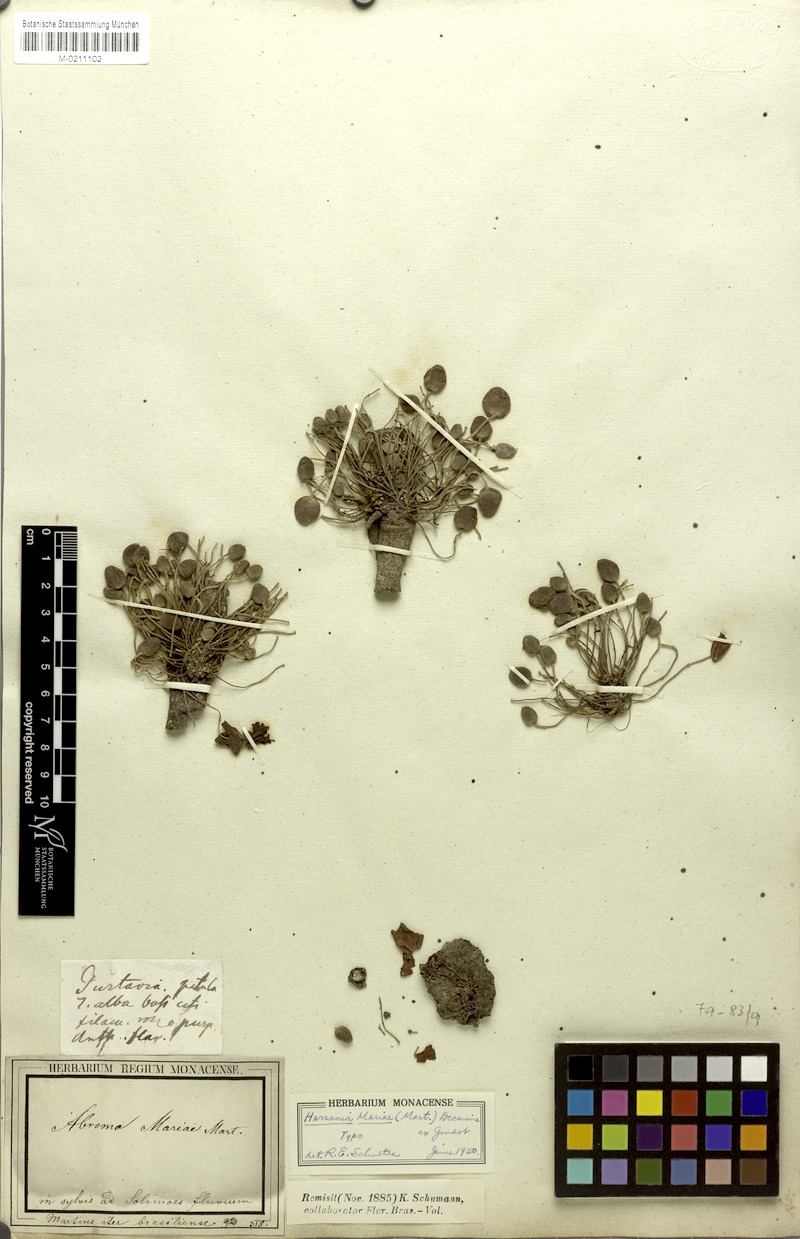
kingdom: Plantae
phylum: Tracheophyta
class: Magnoliopsida
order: Malvales
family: Malvaceae
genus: Abroma
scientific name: Abroma augustum
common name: Devil's-cotton
